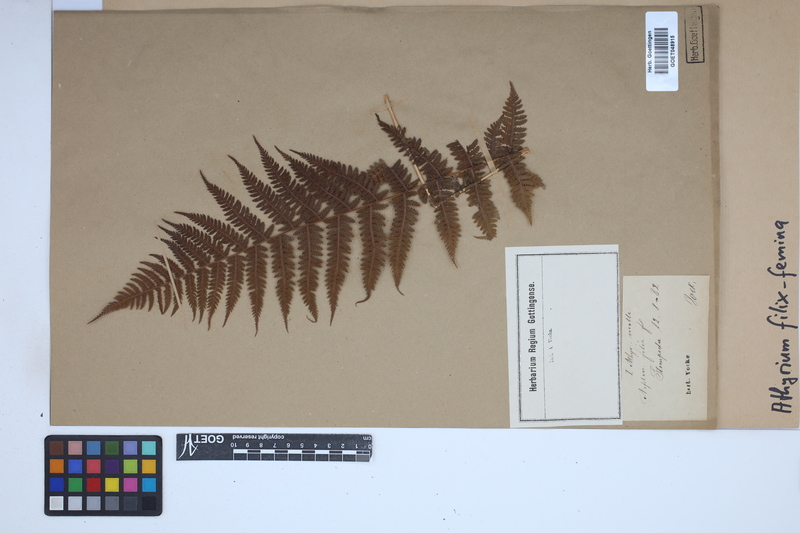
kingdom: Plantae
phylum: Tracheophyta
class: Polypodiopsida
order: Polypodiales
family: Athyriaceae
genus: Athyrium
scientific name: Athyrium filix-femina
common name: Lady fern
